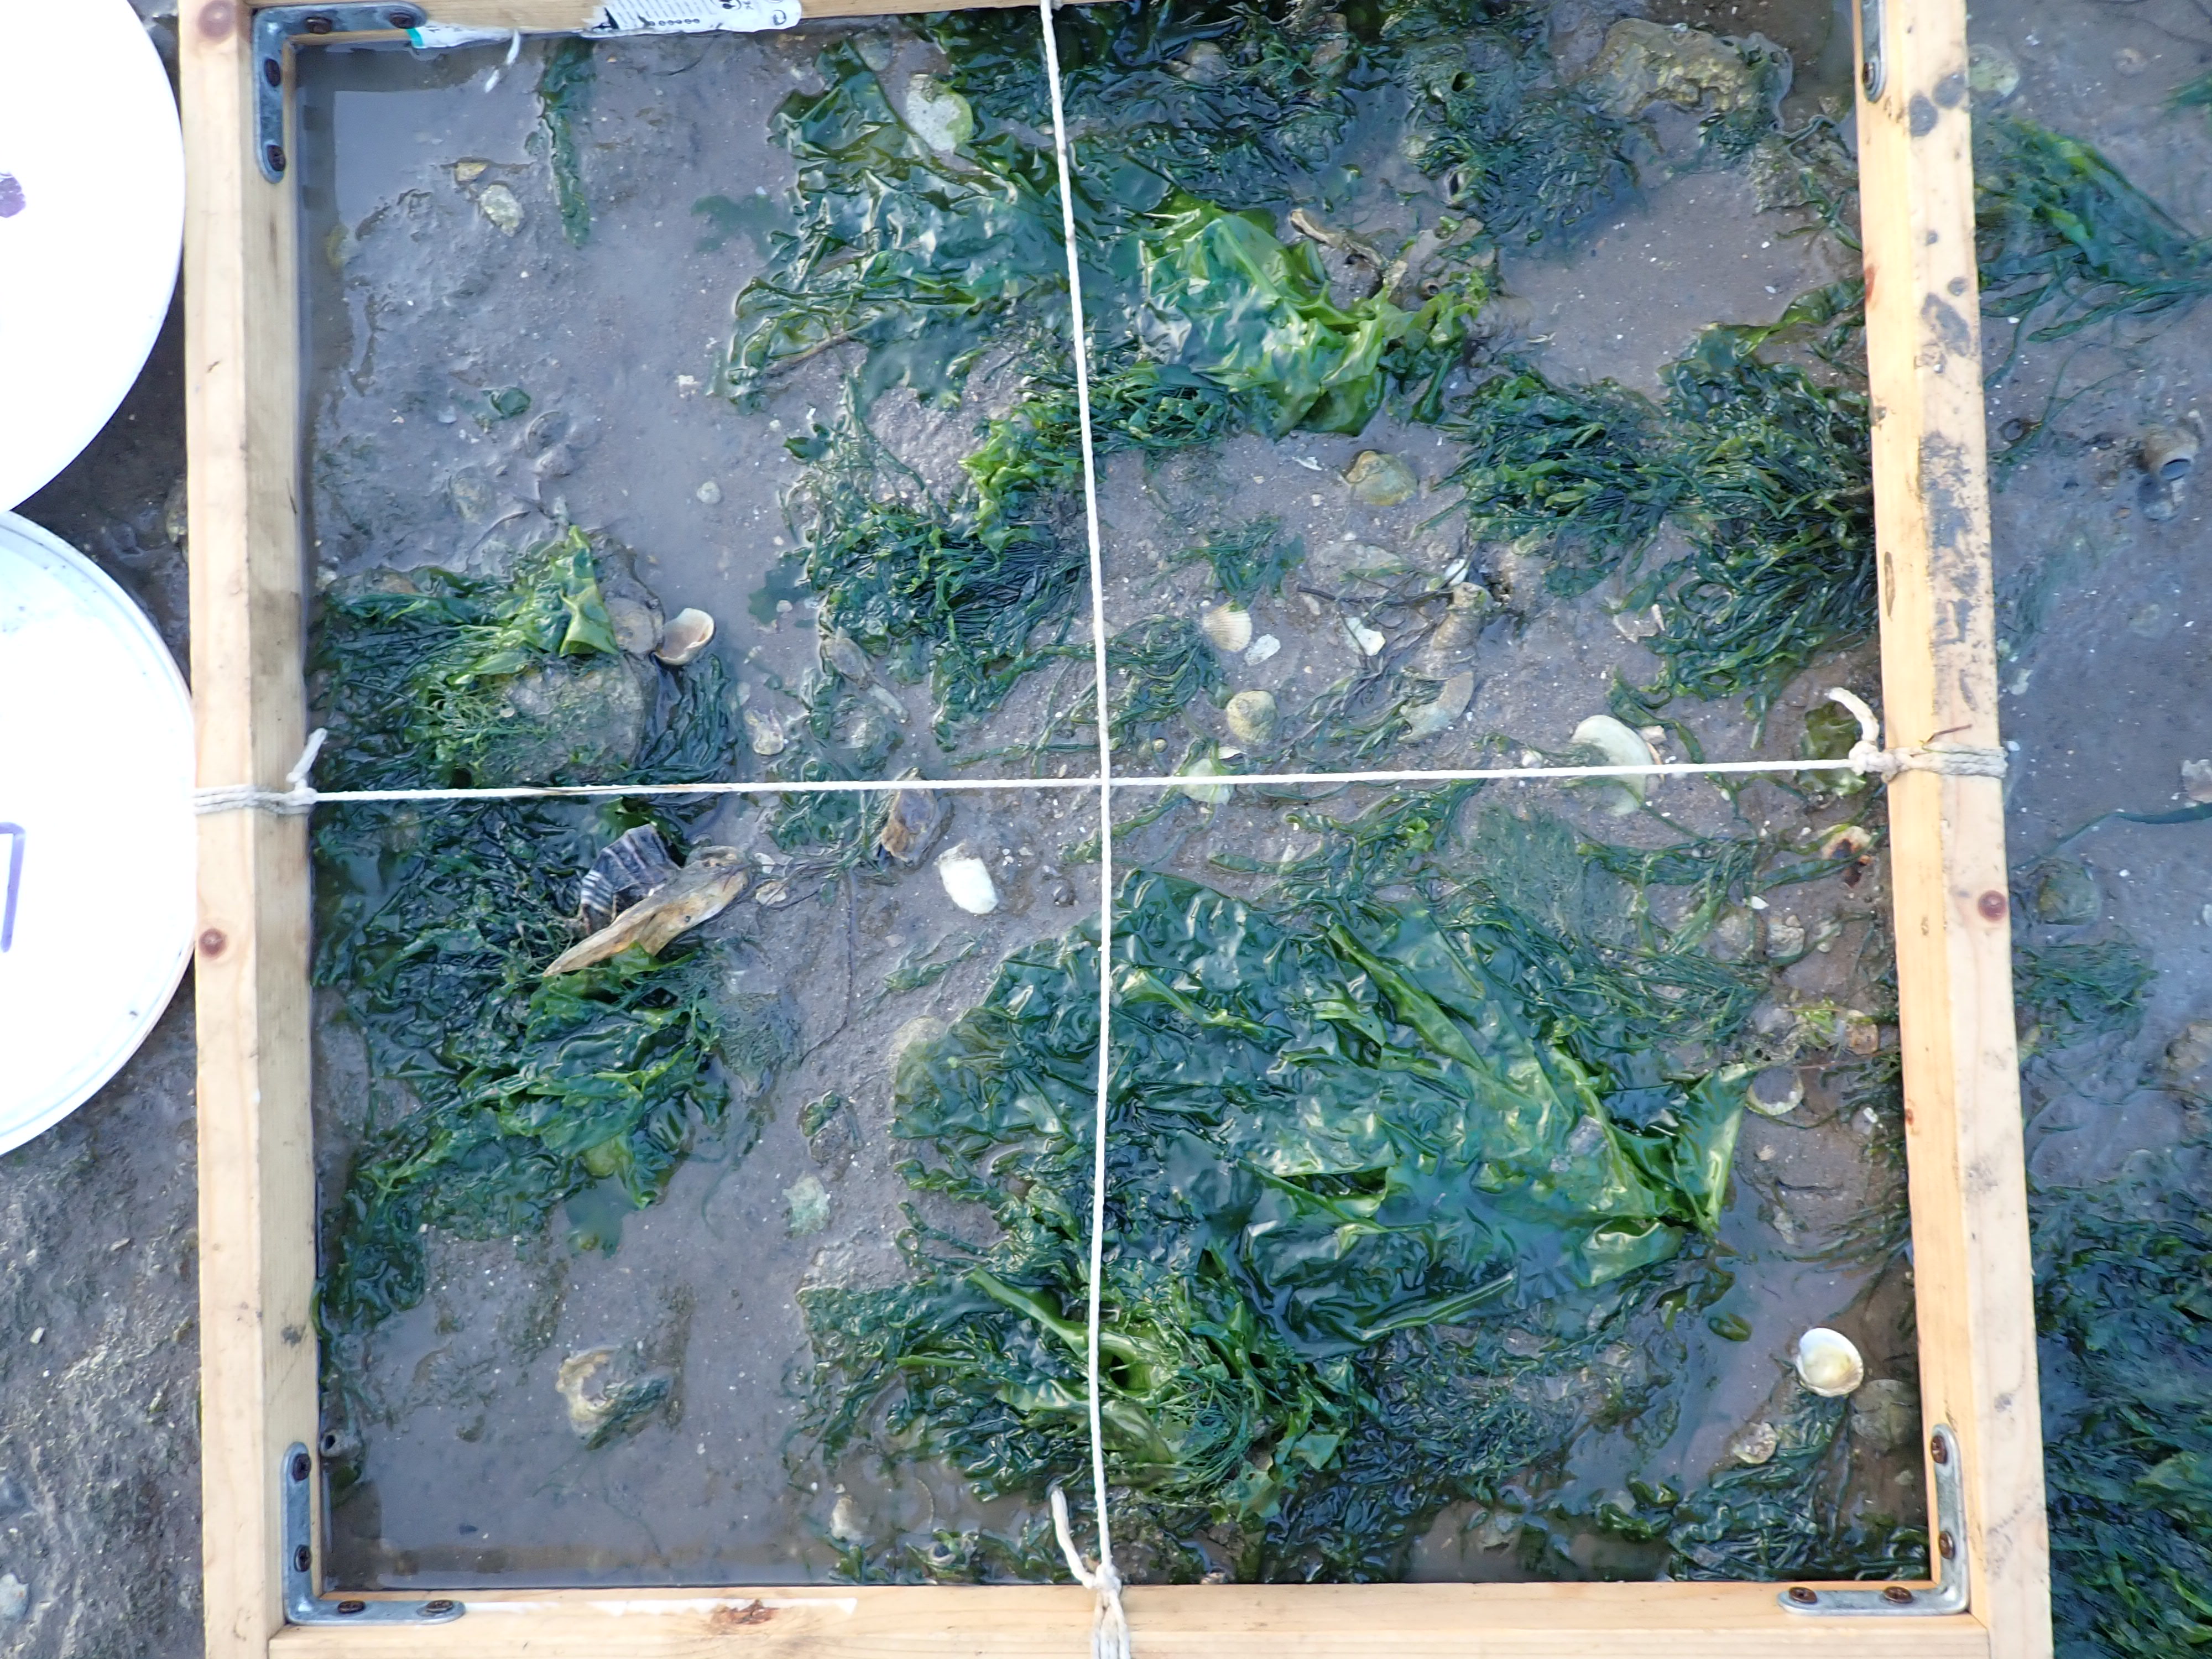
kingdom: Plantae
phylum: Chlorophyta
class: Ulvophyceae
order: Ulvales
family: Ulvaceae
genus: Ulva
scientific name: Ulva
